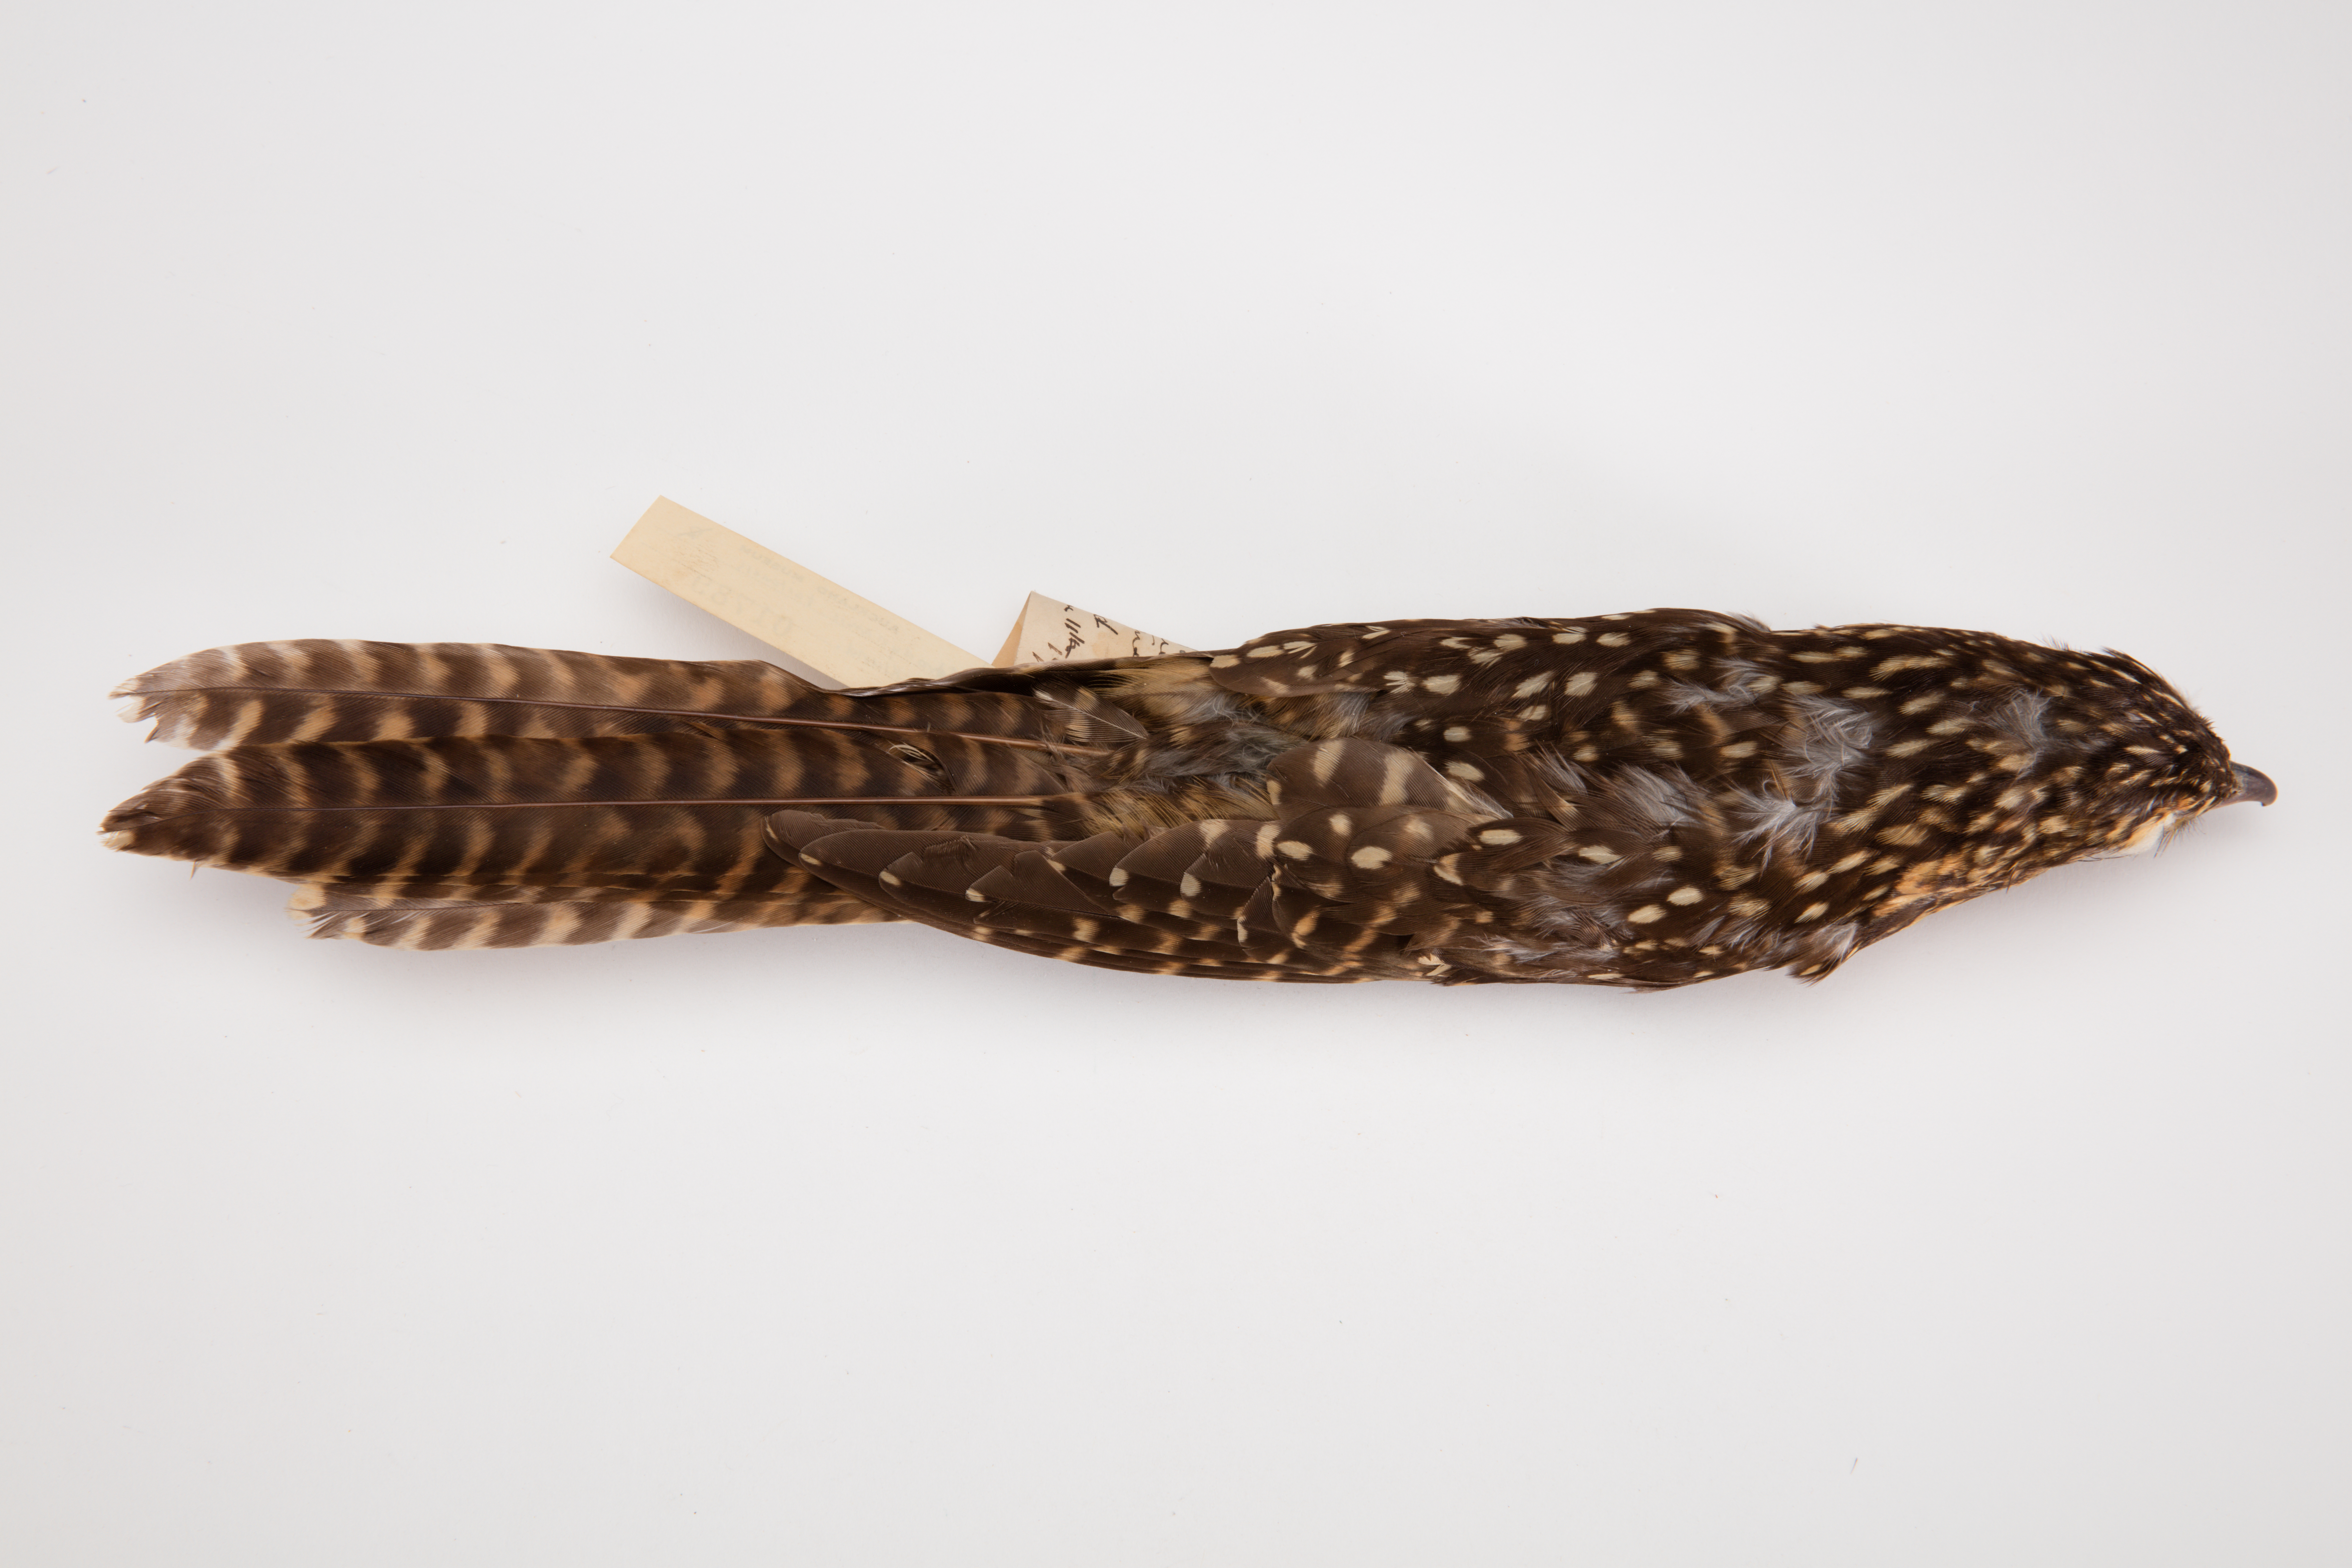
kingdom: Animalia
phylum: Chordata
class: Aves
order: Cuculiformes
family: Cuculidae
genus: Urodynamis
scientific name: Urodynamis taitensis
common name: Long-tailed koel
